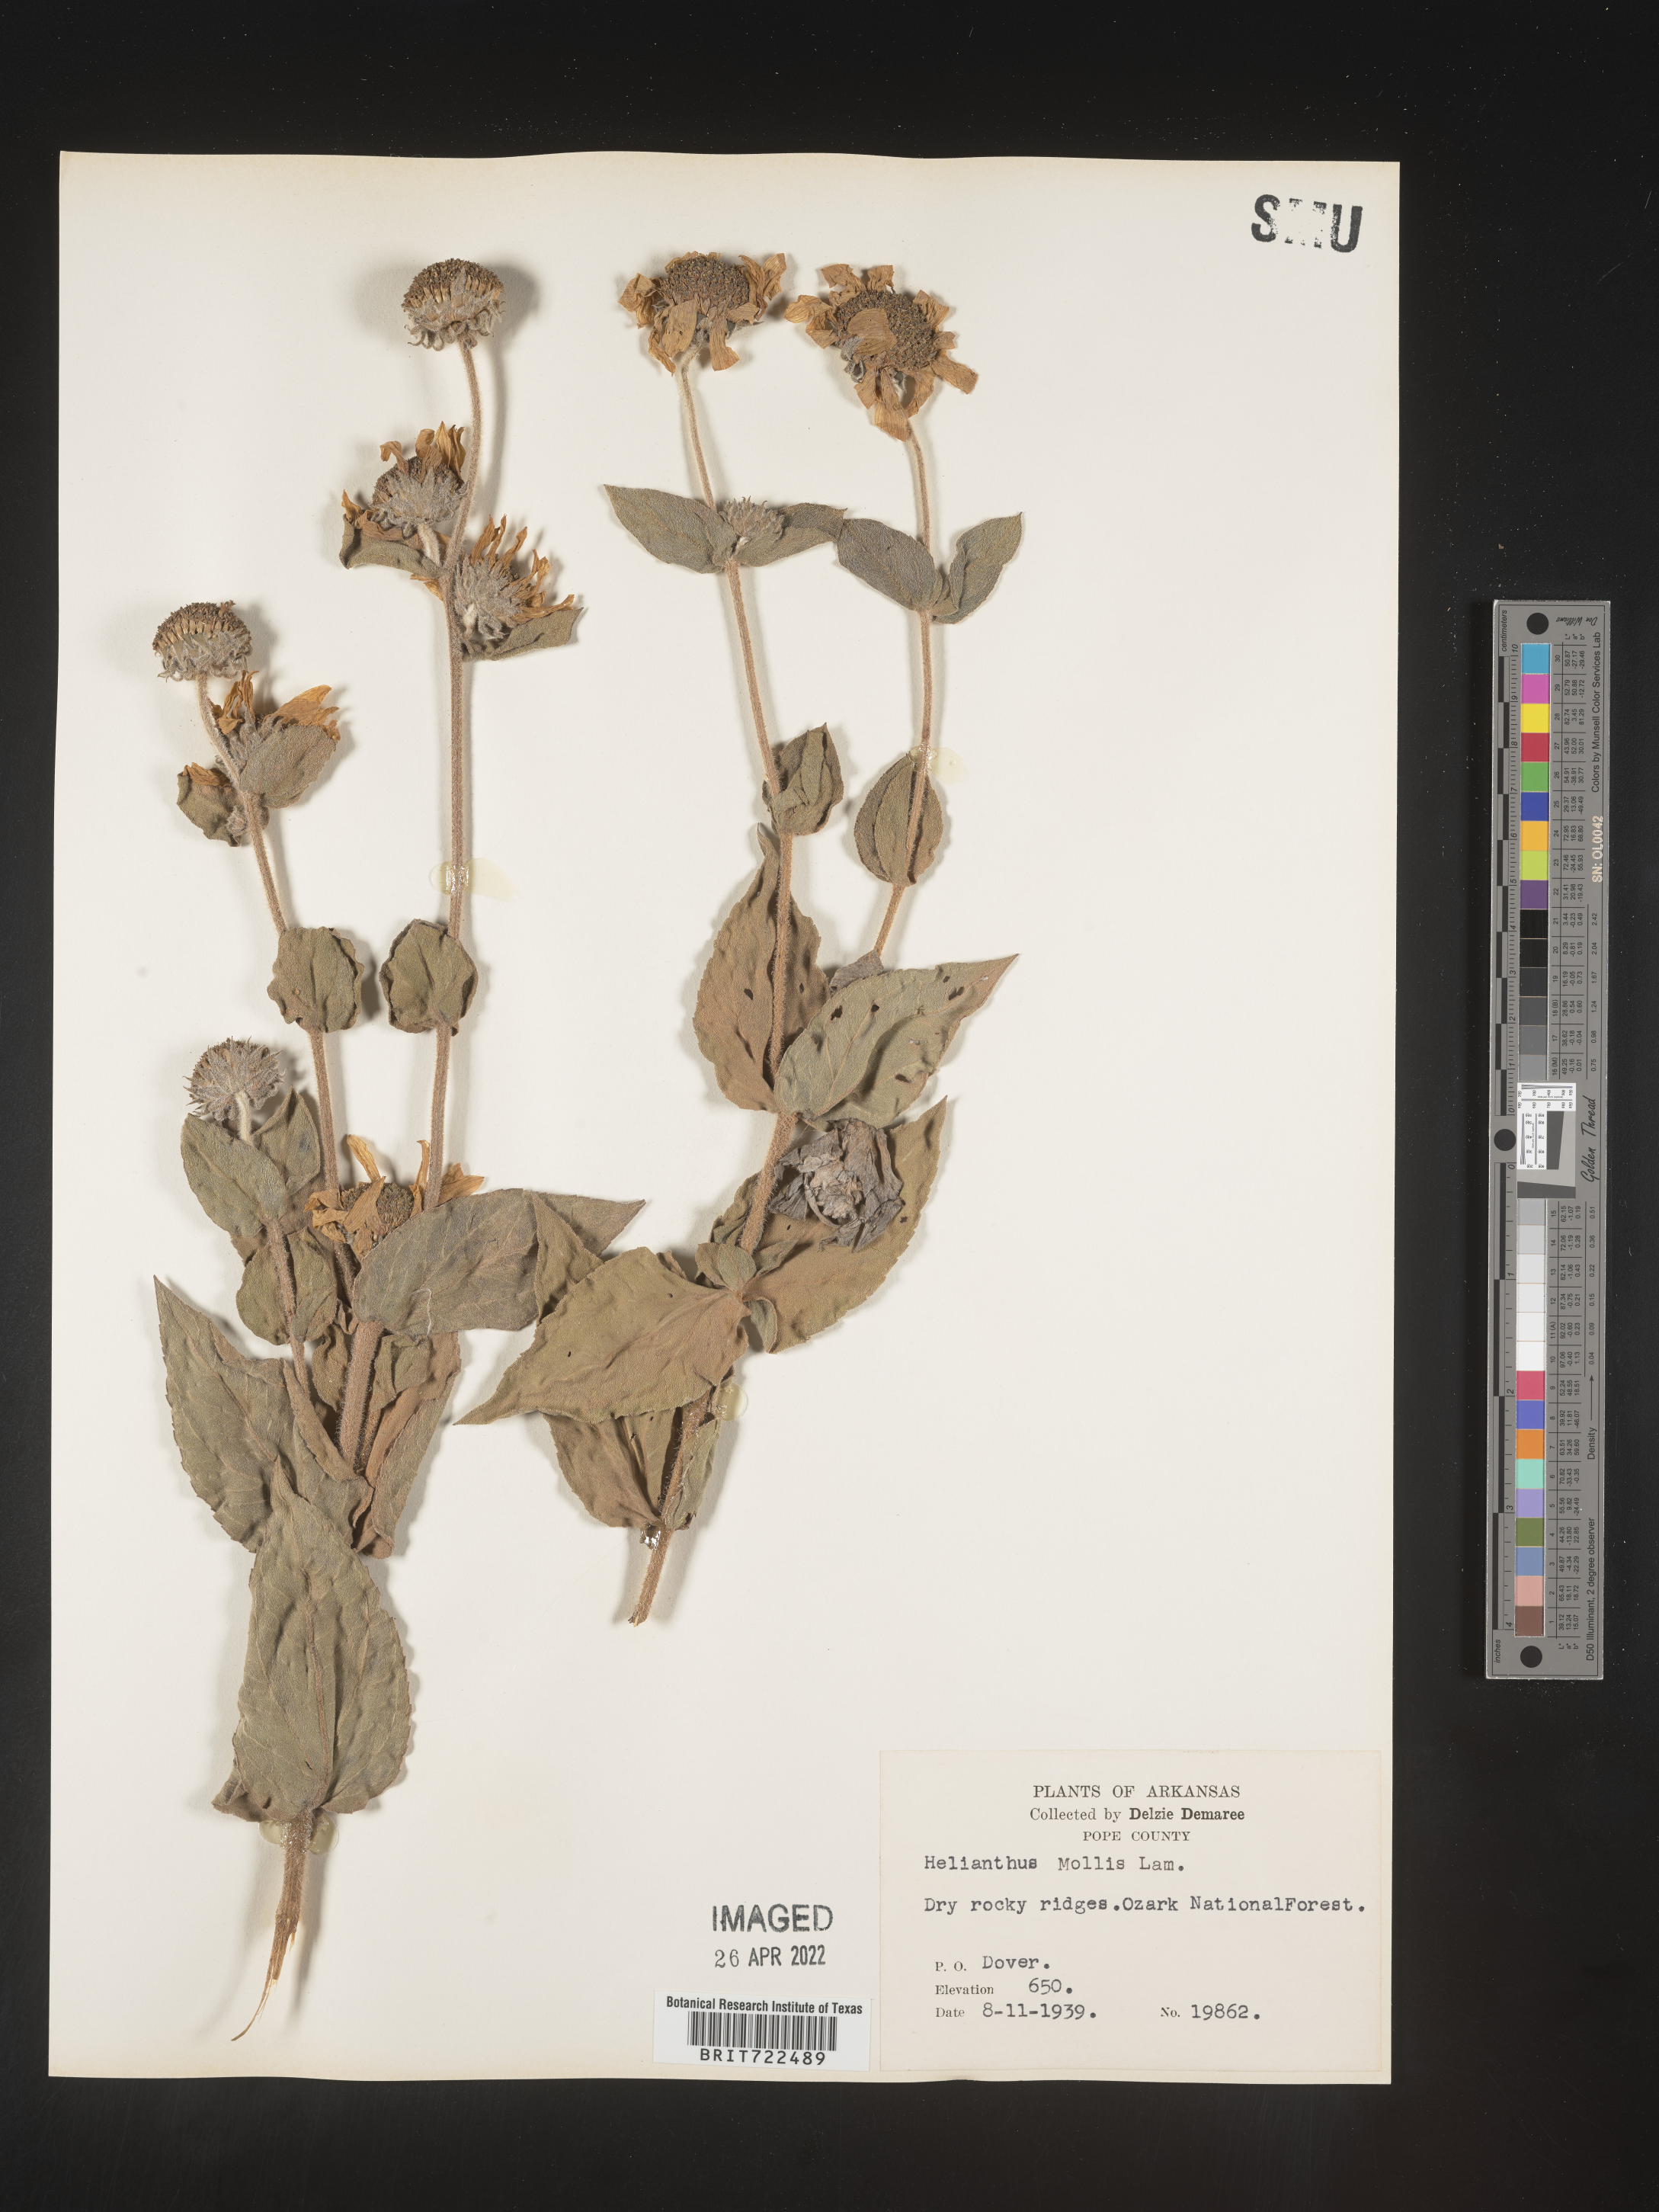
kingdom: Plantae
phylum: Tracheophyta
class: Magnoliopsida
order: Asterales
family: Asteraceae
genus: Helianthus
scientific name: Helianthus mollis
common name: Ashy sunflower
